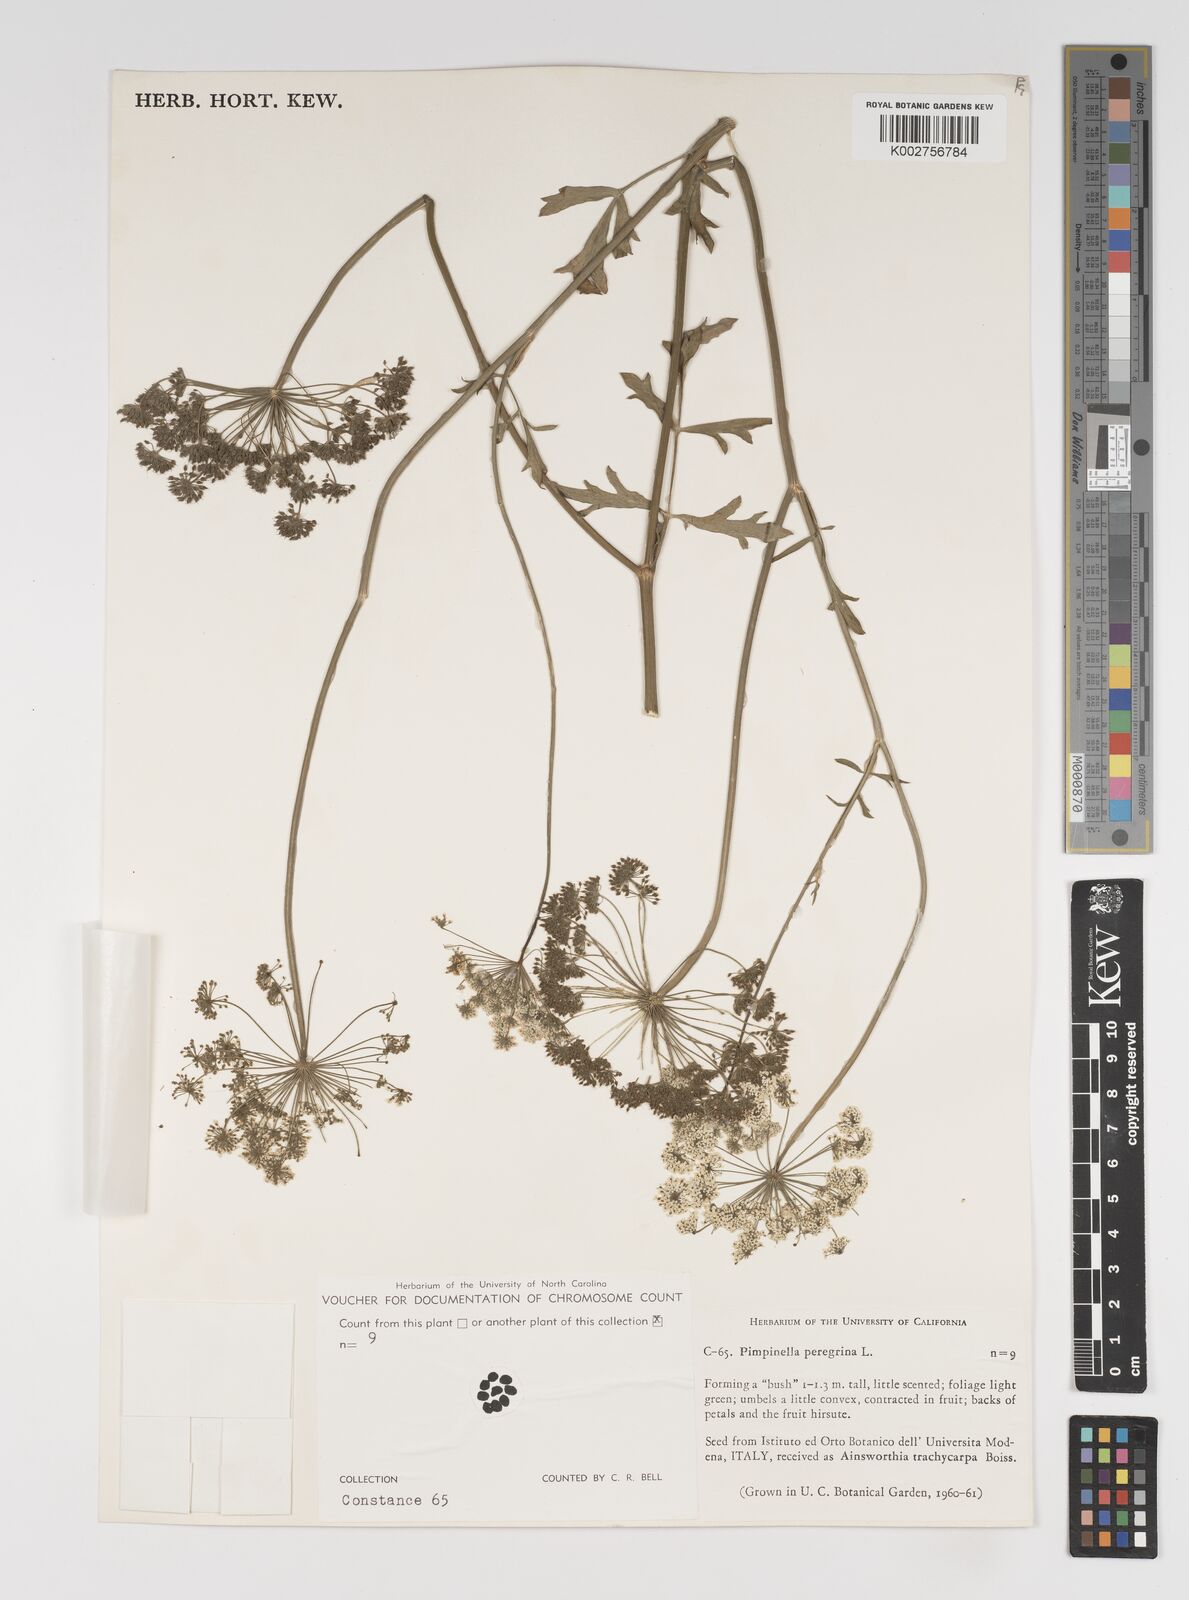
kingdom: Plantae
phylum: Tracheophyta
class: Magnoliopsida
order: Apiales
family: Apiaceae
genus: Pimpinella
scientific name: Pimpinella peregrina
